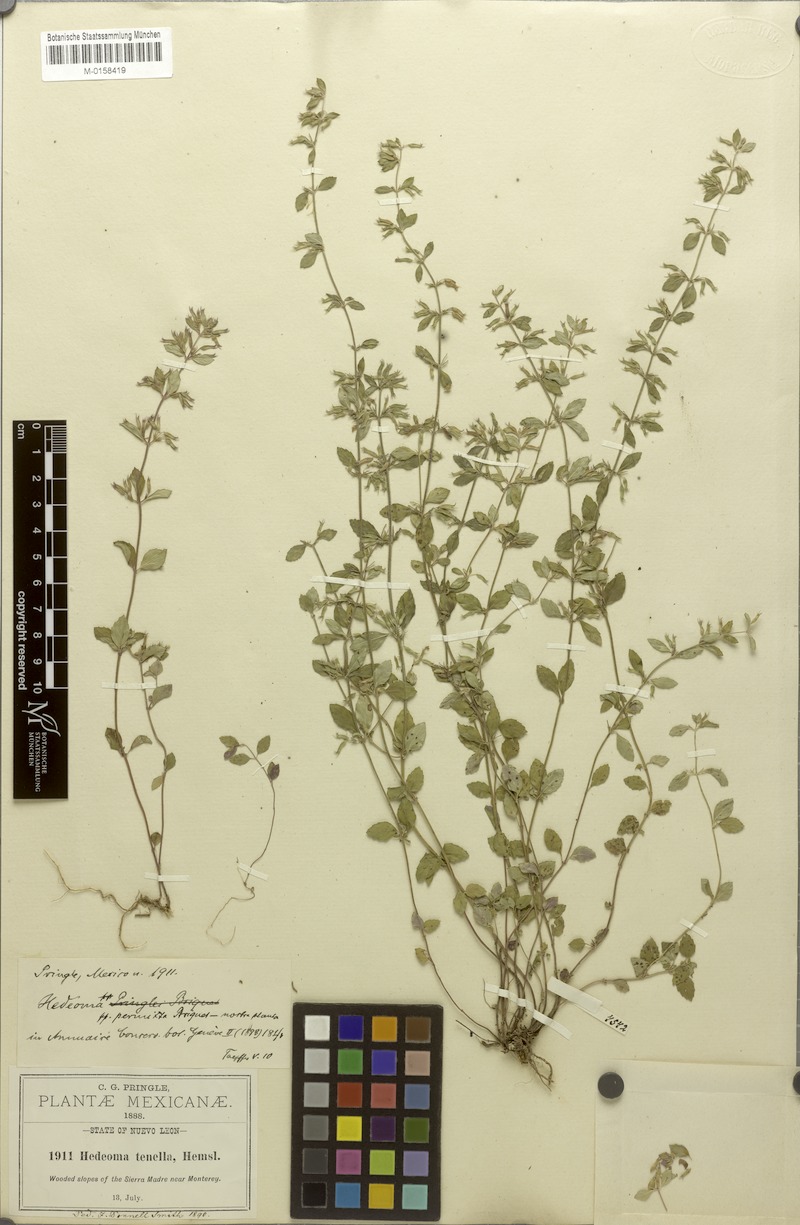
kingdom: Plantae
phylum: Tracheophyta
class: Magnoliopsida
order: Lamiales
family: Lamiaceae
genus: Hedeoma
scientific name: Hedeoma costata
